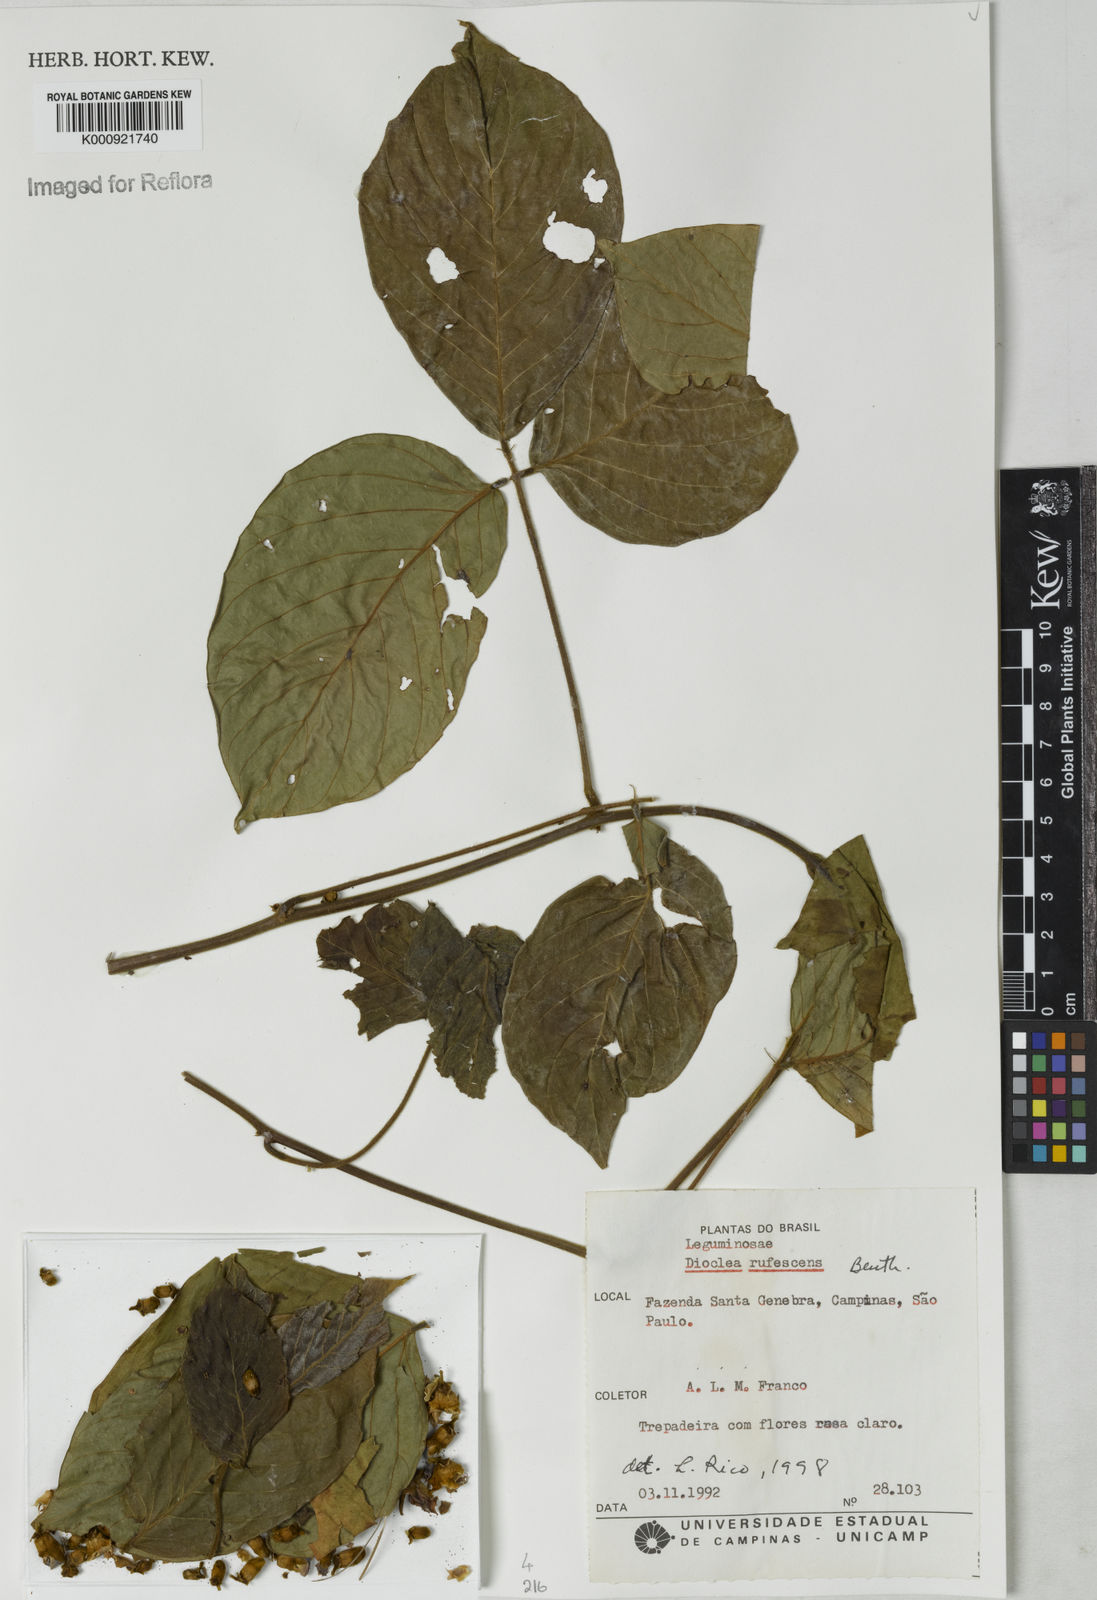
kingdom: Plantae
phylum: Tracheophyta
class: Magnoliopsida
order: Fabales
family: Fabaceae
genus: Macropsychanthus
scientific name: Macropsychanthus rufescens
